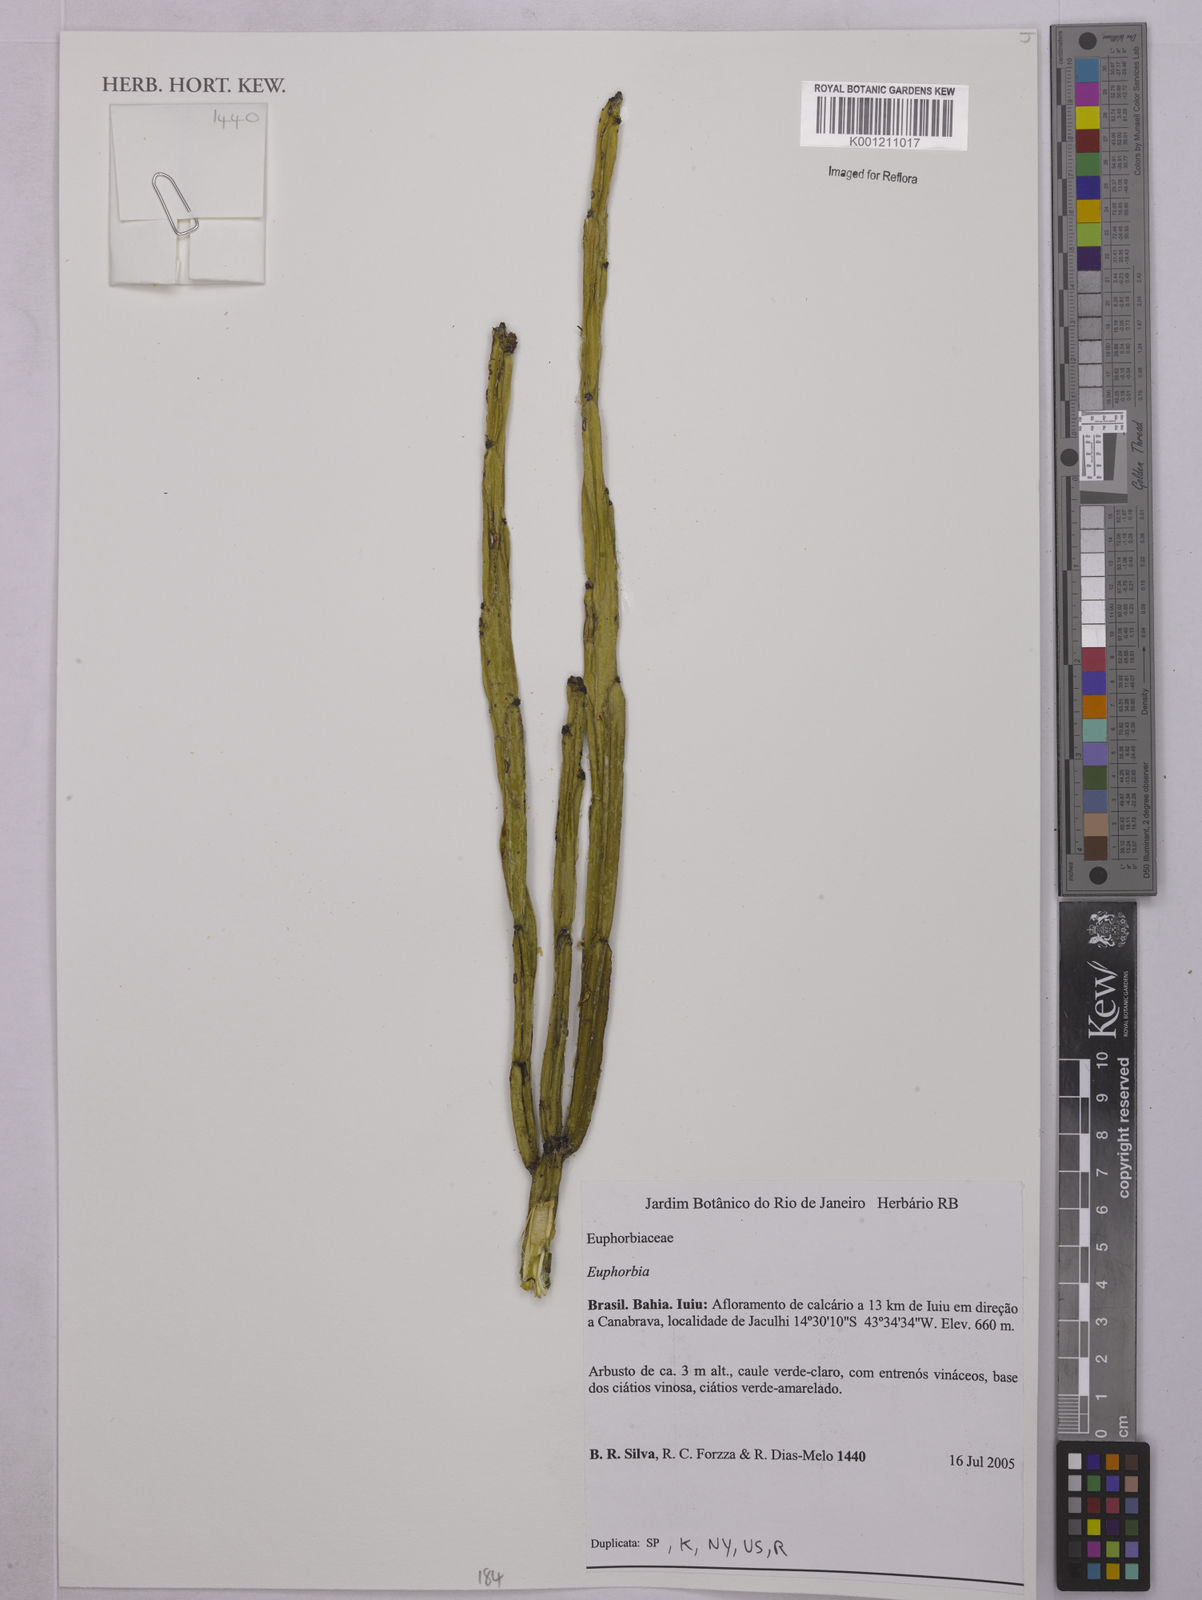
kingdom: Plantae
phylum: Tracheophyta
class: Magnoliopsida
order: Malpighiales
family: Euphorbiaceae
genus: Euphorbia
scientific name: Euphorbia
